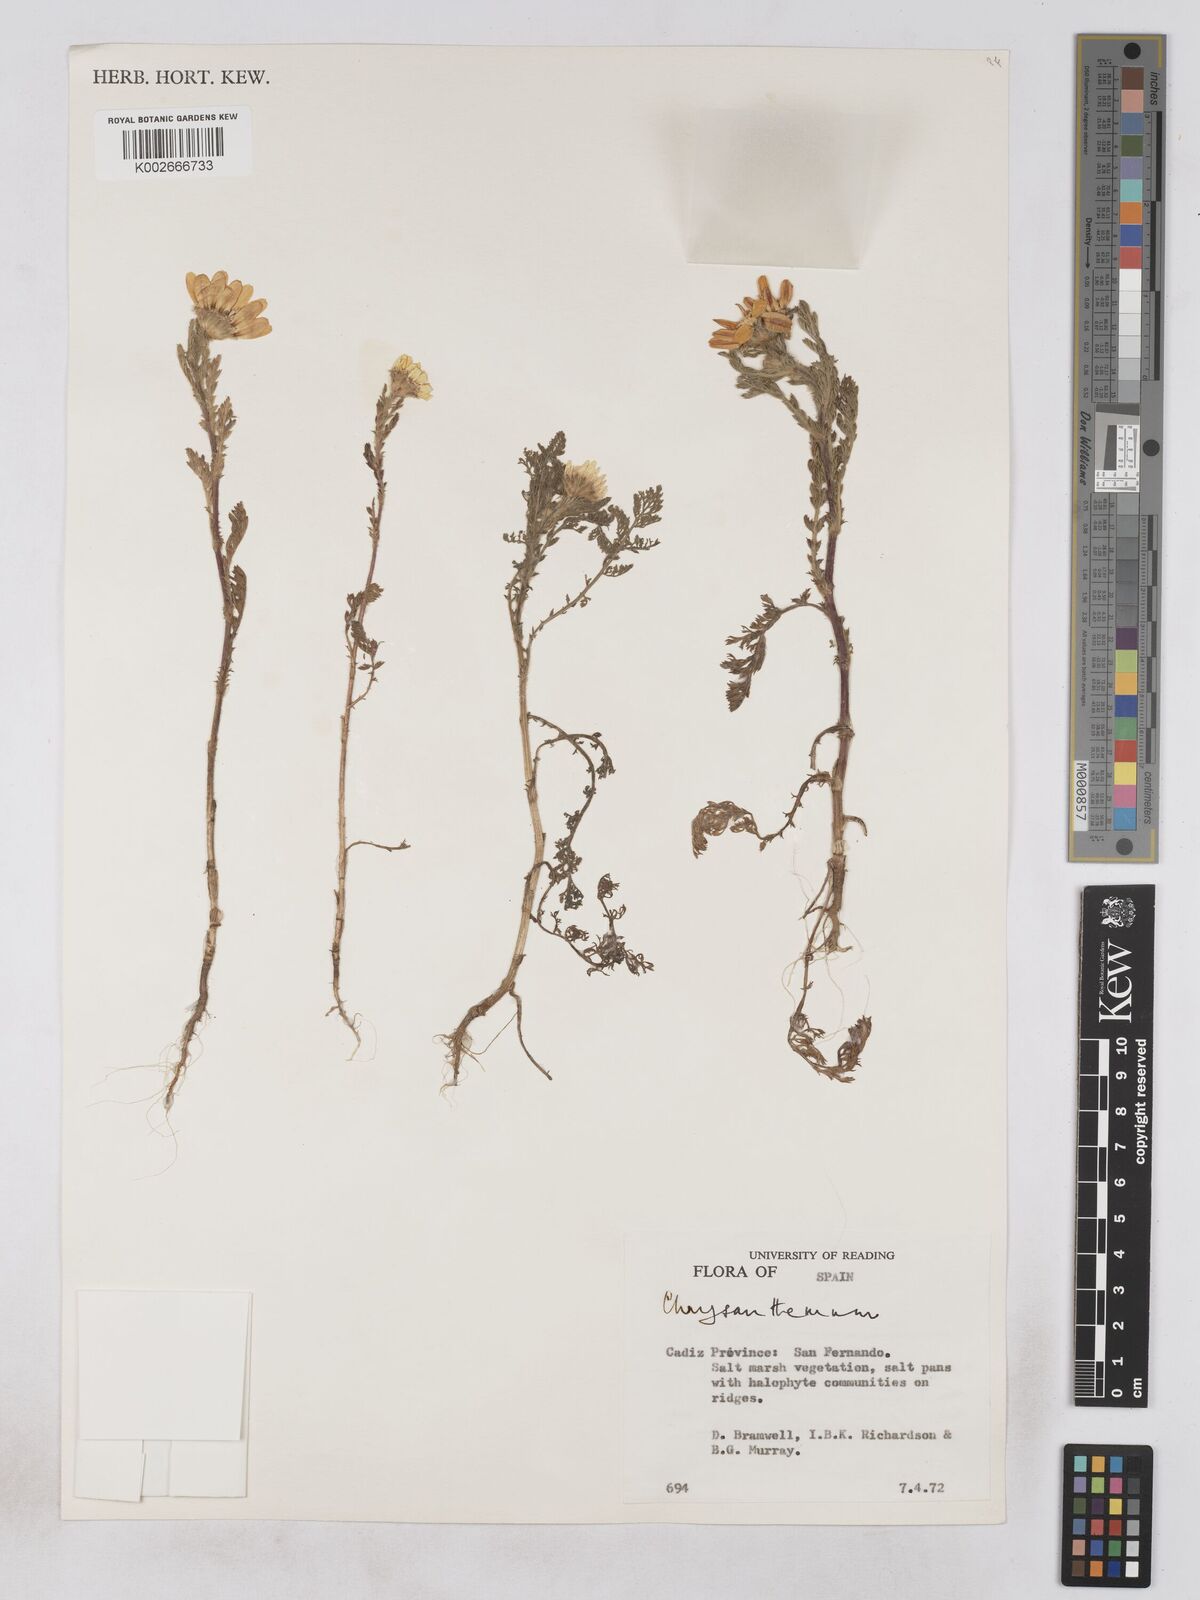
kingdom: Plantae
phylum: Tracheophyta
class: Magnoliopsida
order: Asterales
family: Asteraceae
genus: Glebionis
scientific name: Glebionis
